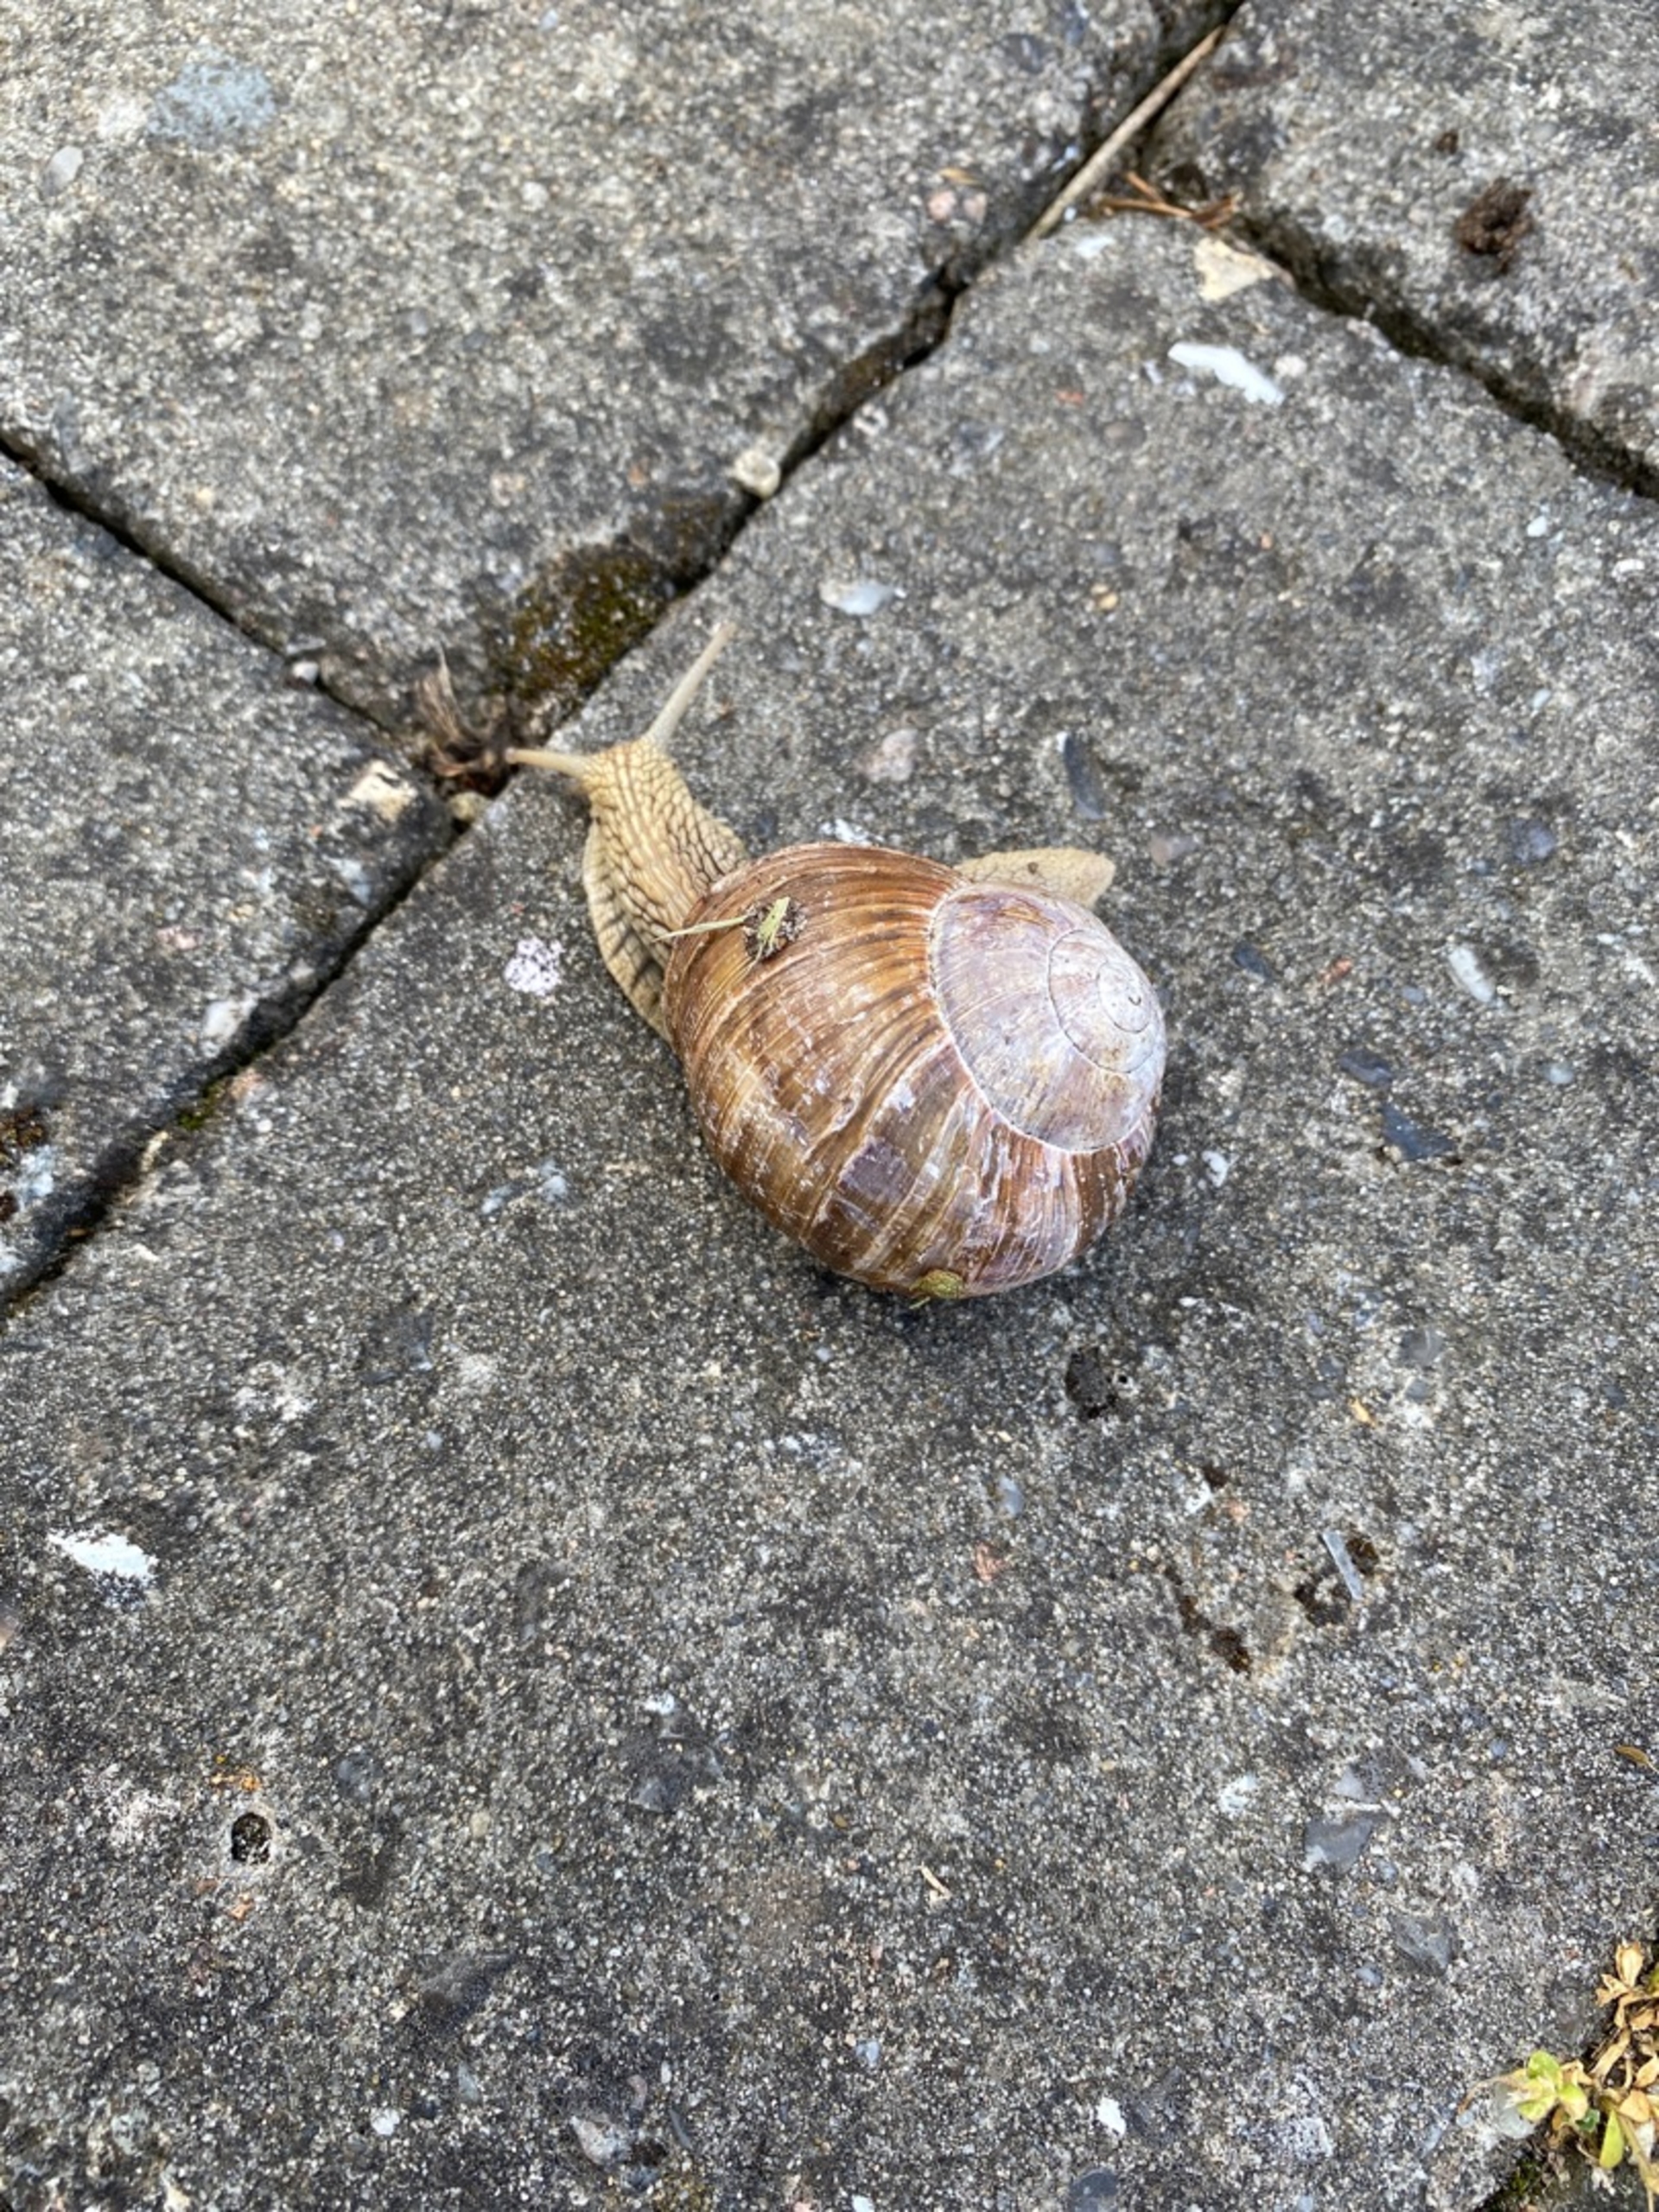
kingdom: Animalia
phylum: Mollusca
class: Gastropoda
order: Stylommatophora
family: Helicidae
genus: Helix
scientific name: Helix pomatia
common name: Vinbjergsnegl
